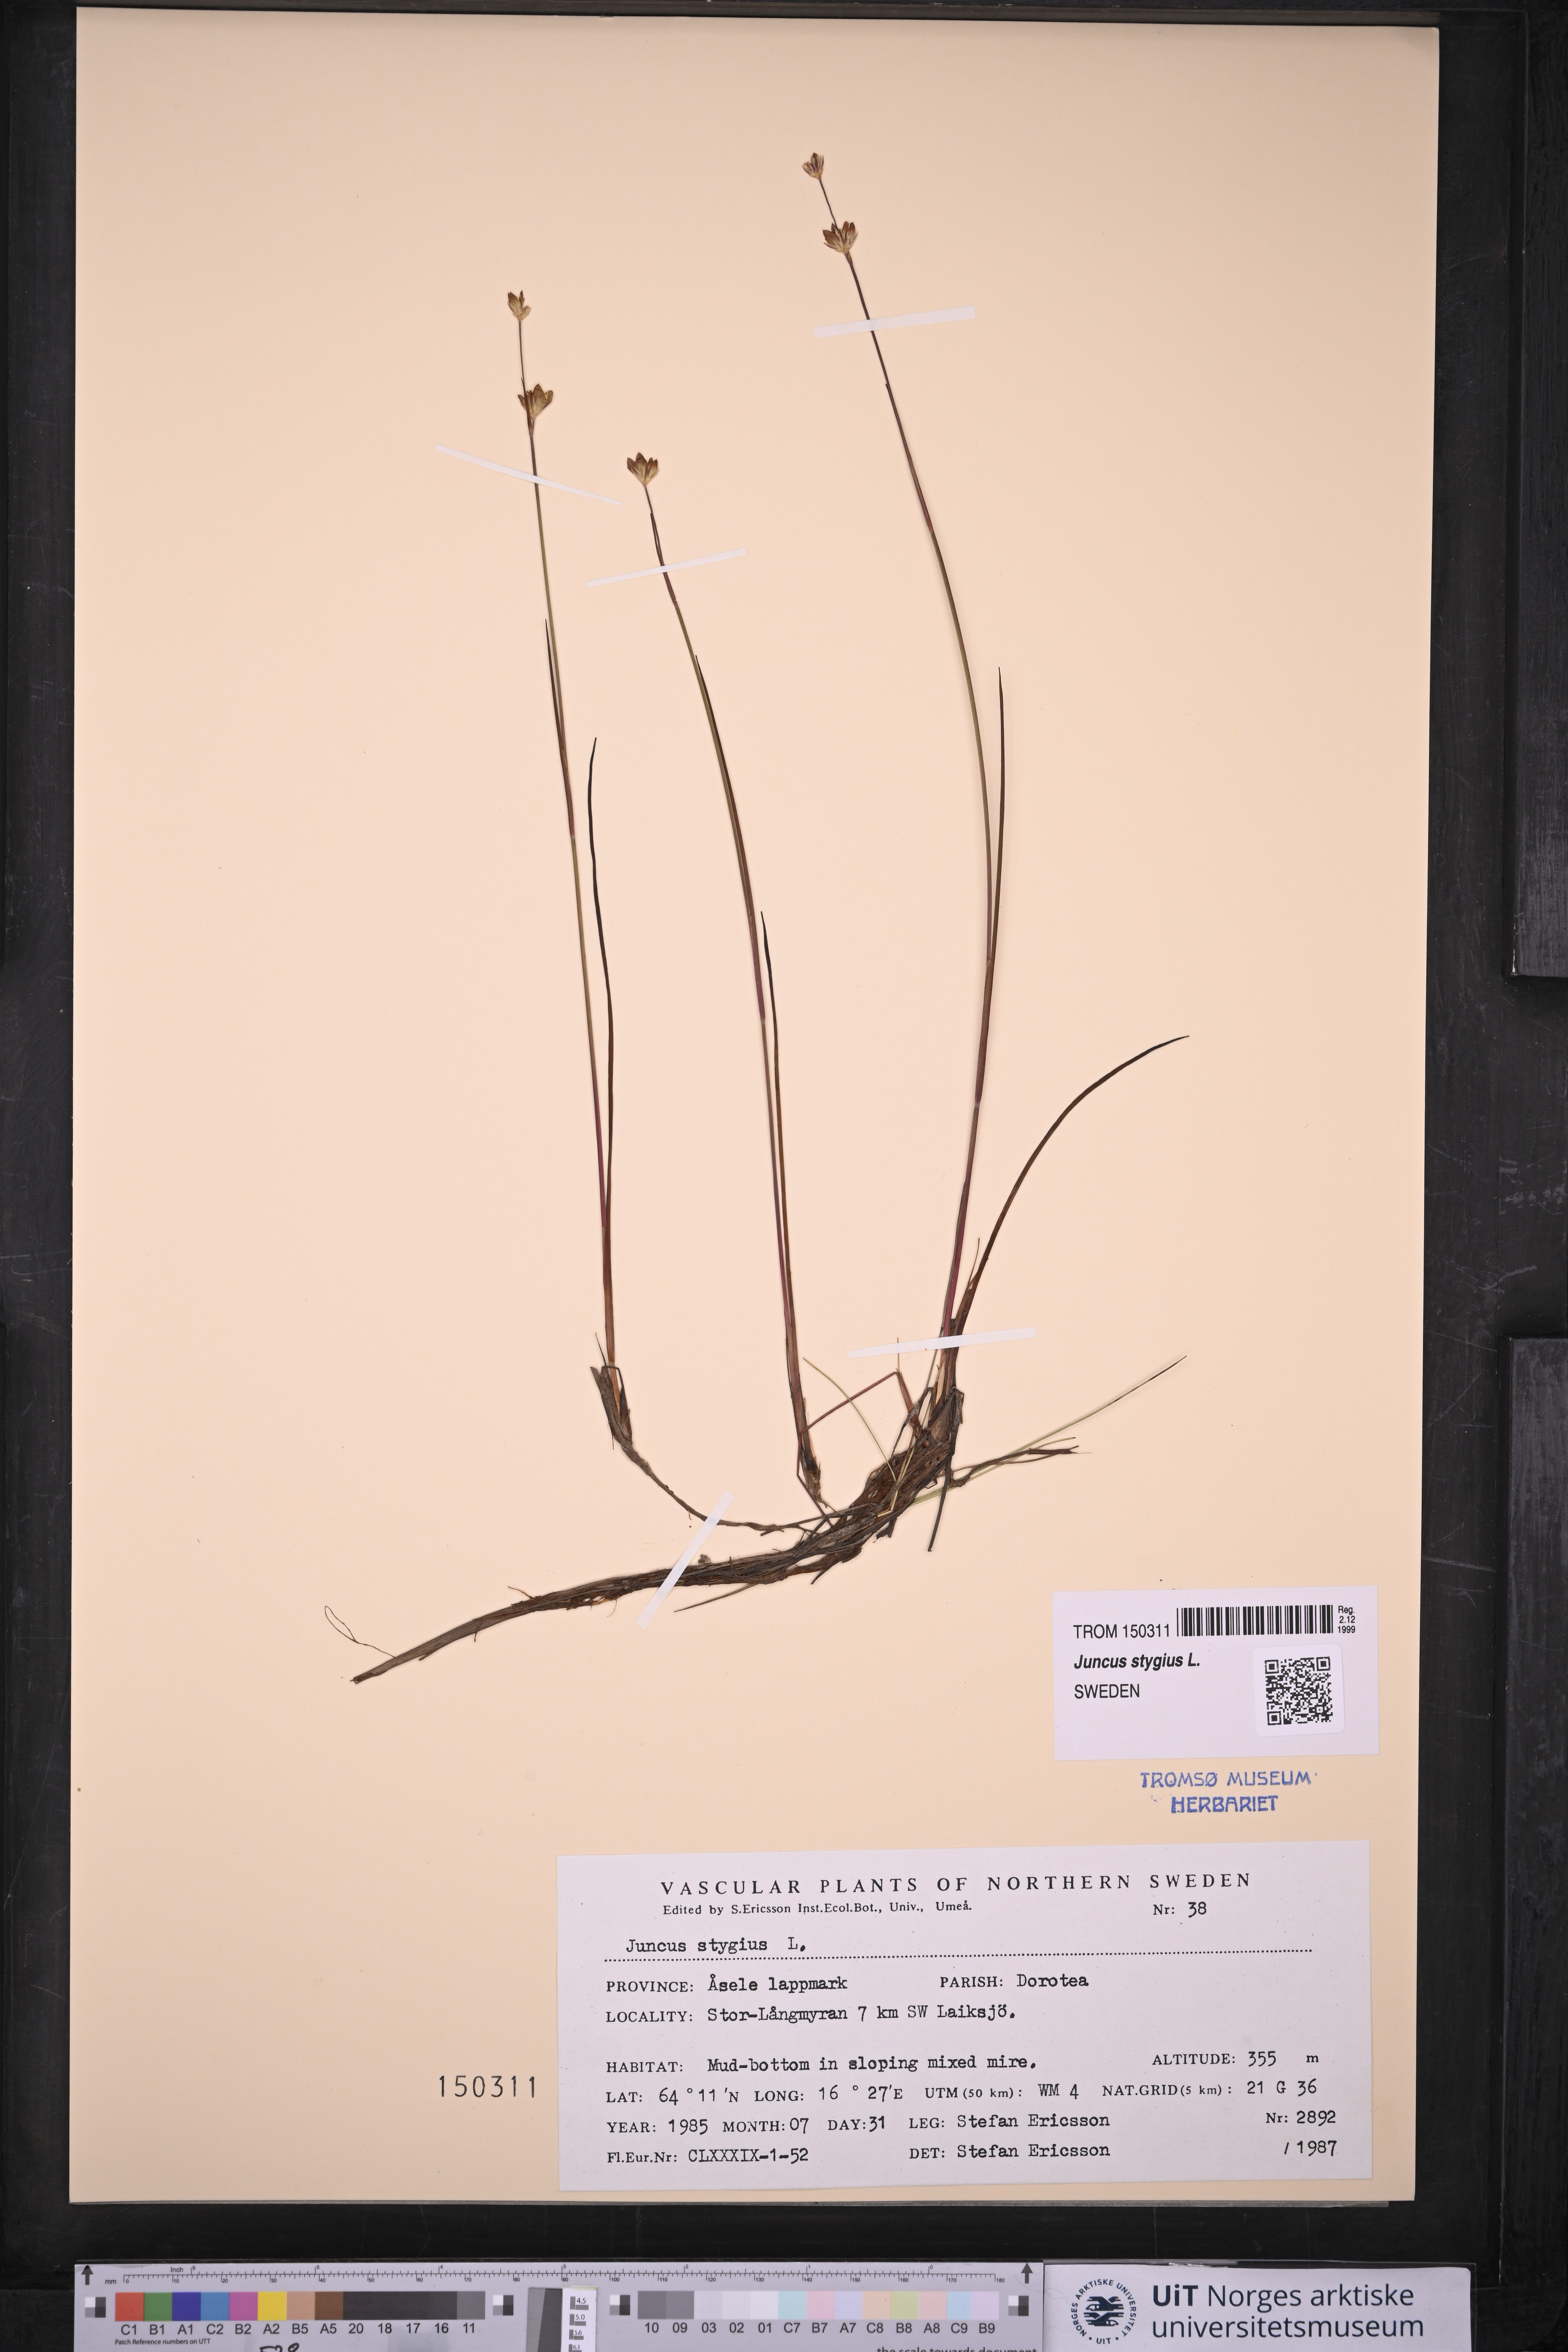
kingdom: Plantae
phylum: Tracheophyta
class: Liliopsida
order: Poales
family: Juncaceae
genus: Juncus
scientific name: Juncus stygius
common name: Bog rush
